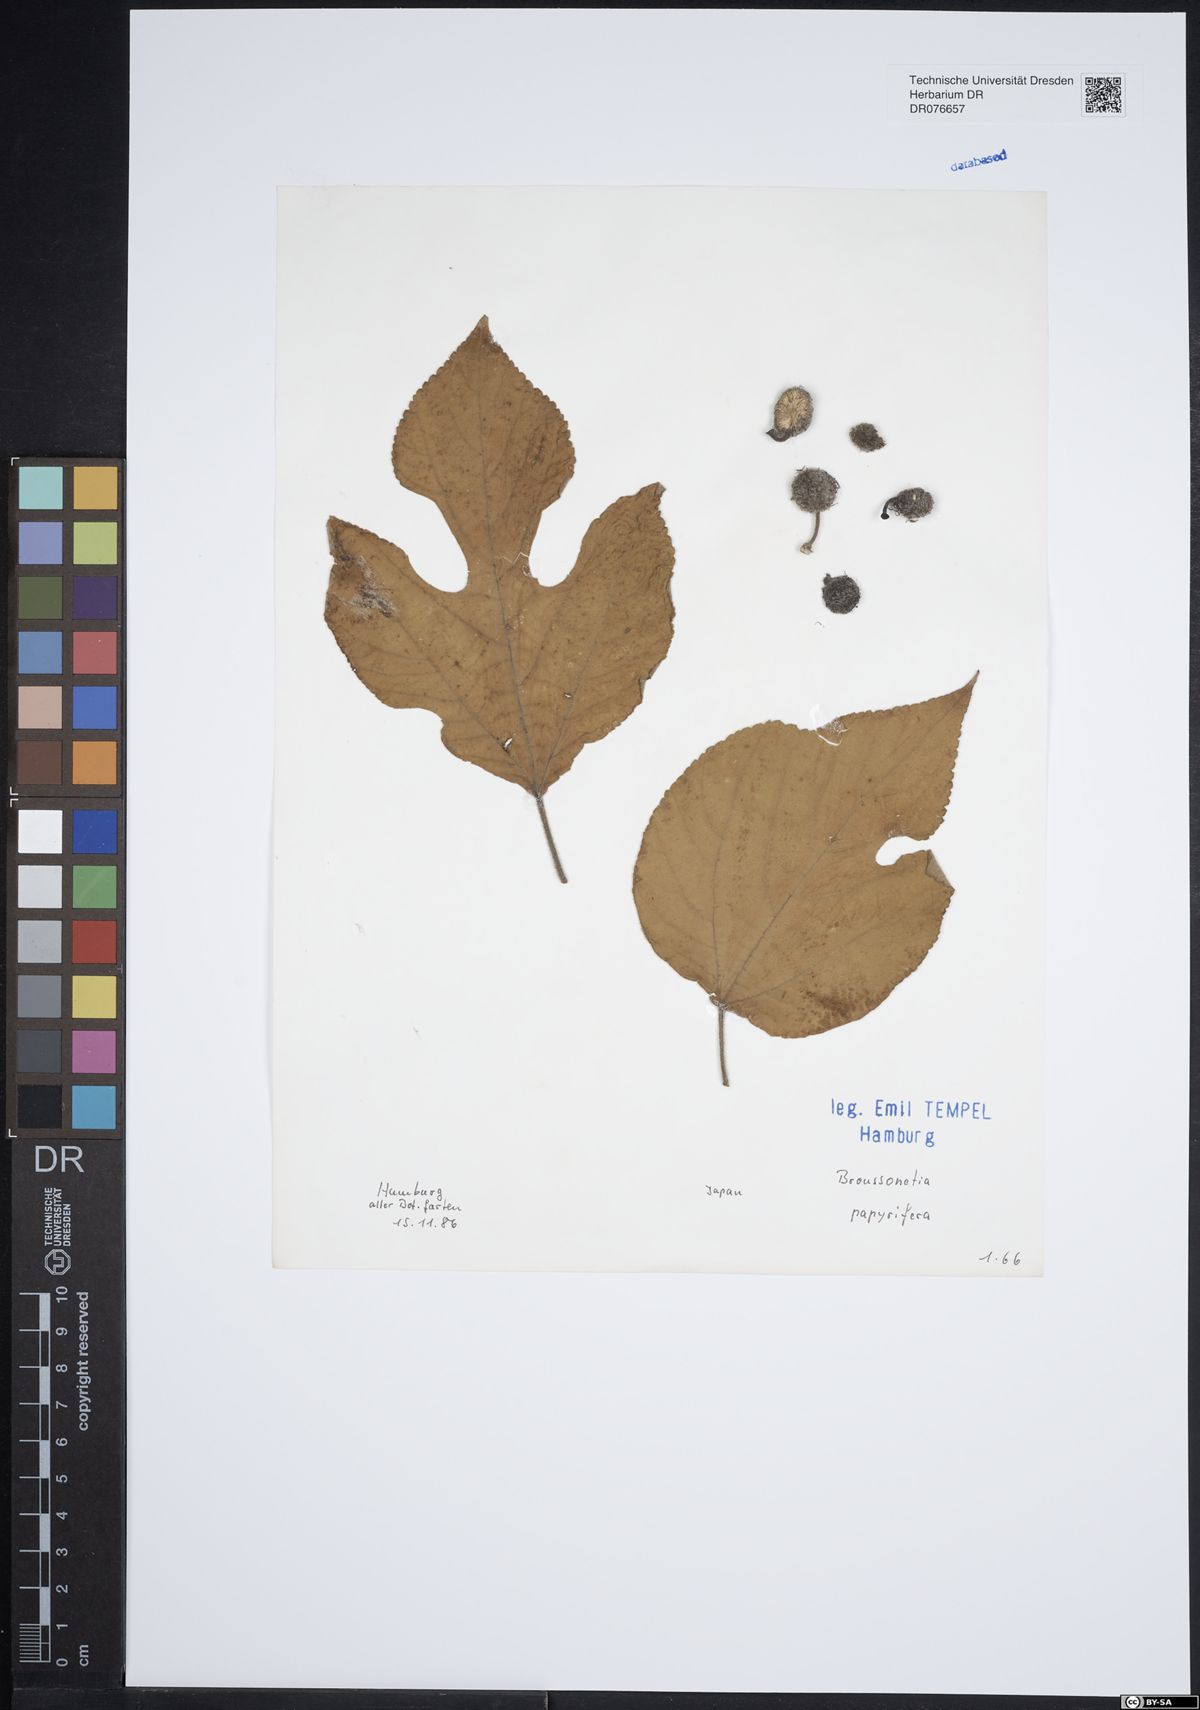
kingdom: Plantae
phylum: Tracheophyta
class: Magnoliopsida
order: Rosales
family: Moraceae
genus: Broussonetia
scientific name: Broussonetia papyrifera
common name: Paper mulberry
